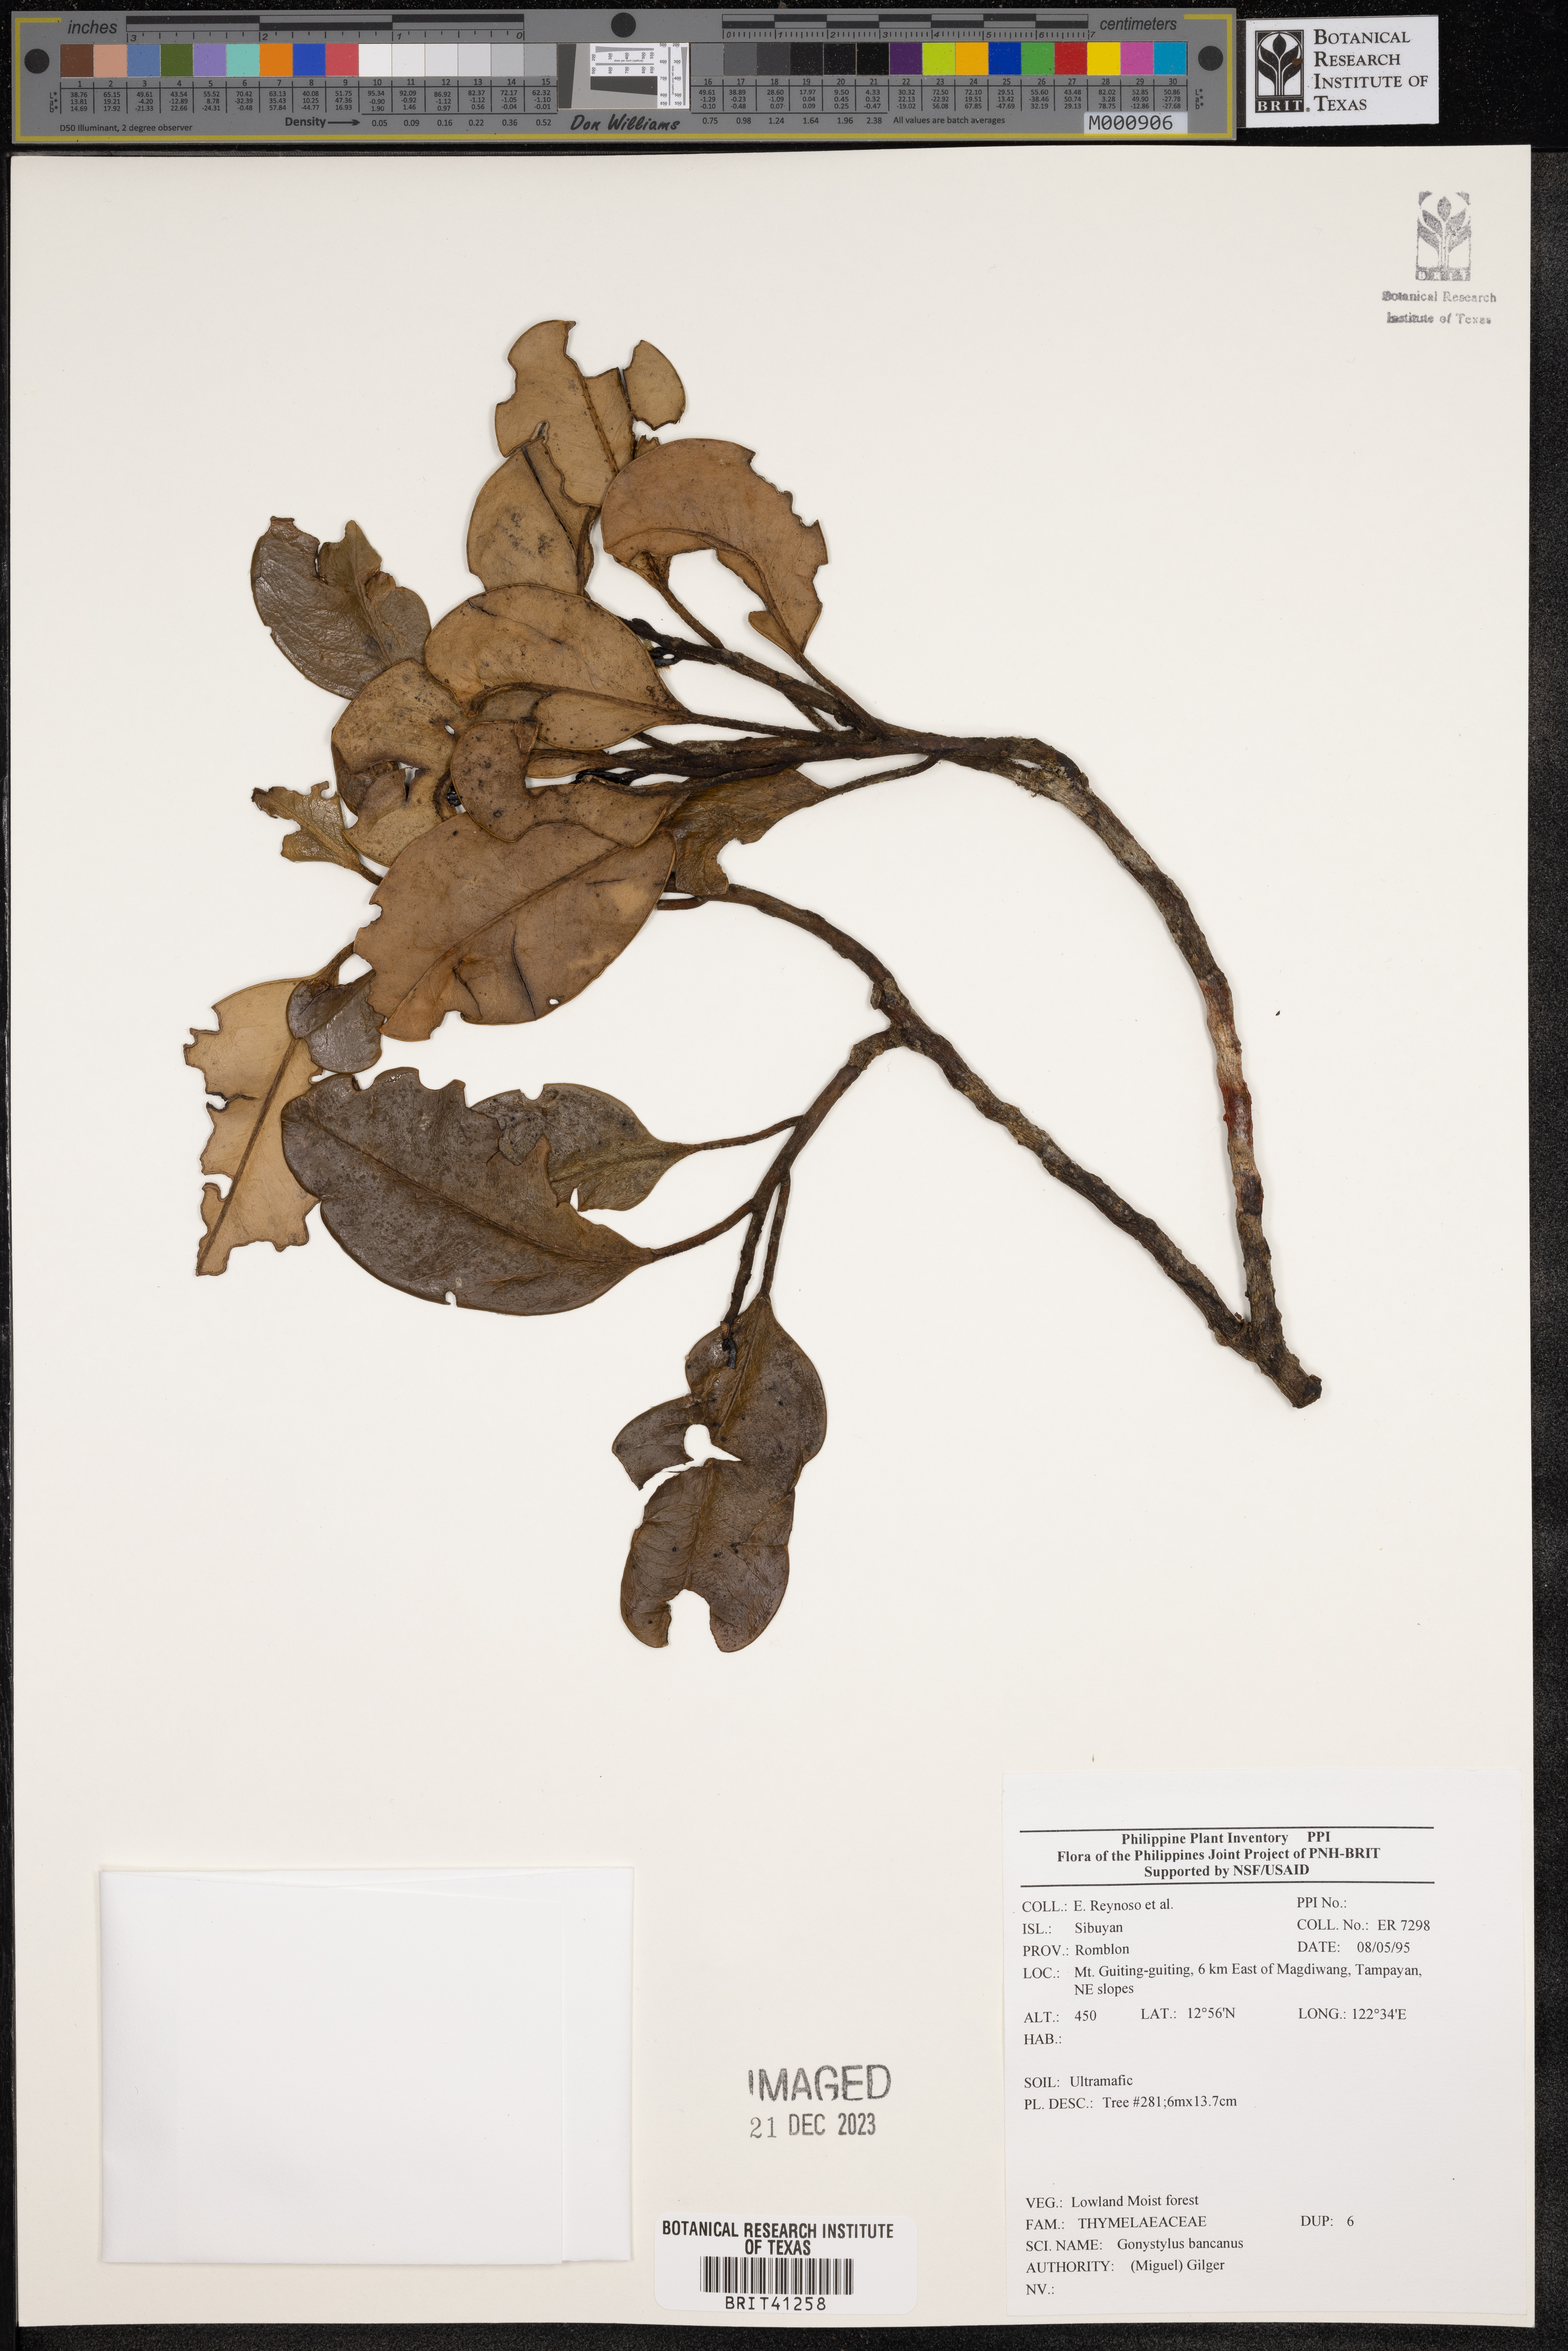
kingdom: Plantae
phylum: Tracheophyta
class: Magnoliopsida
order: Malvales
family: Thymelaeaceae
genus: Gonystylus
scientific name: Gonystylus bancanus
